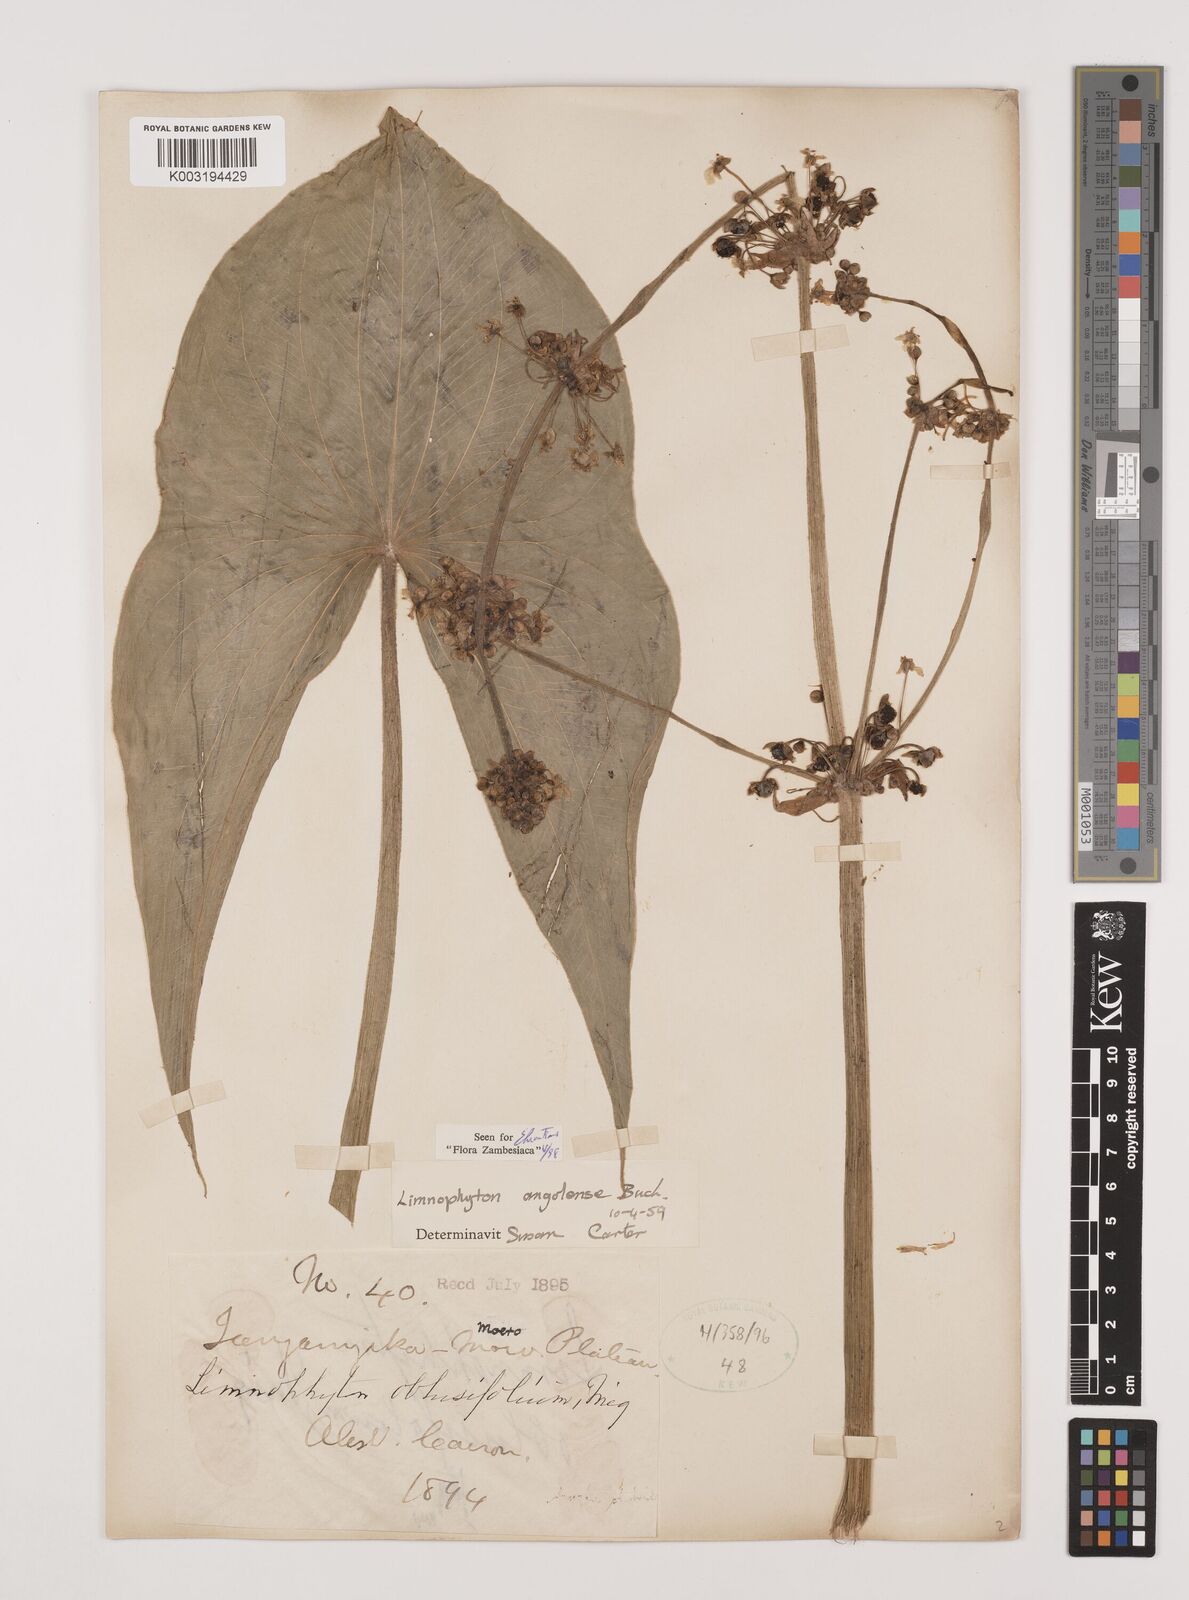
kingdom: Plantae
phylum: Tracheophyta
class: Liliopsida
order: Alismatales
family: Alismataceae
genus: Limnophyton
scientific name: Limnophyton
